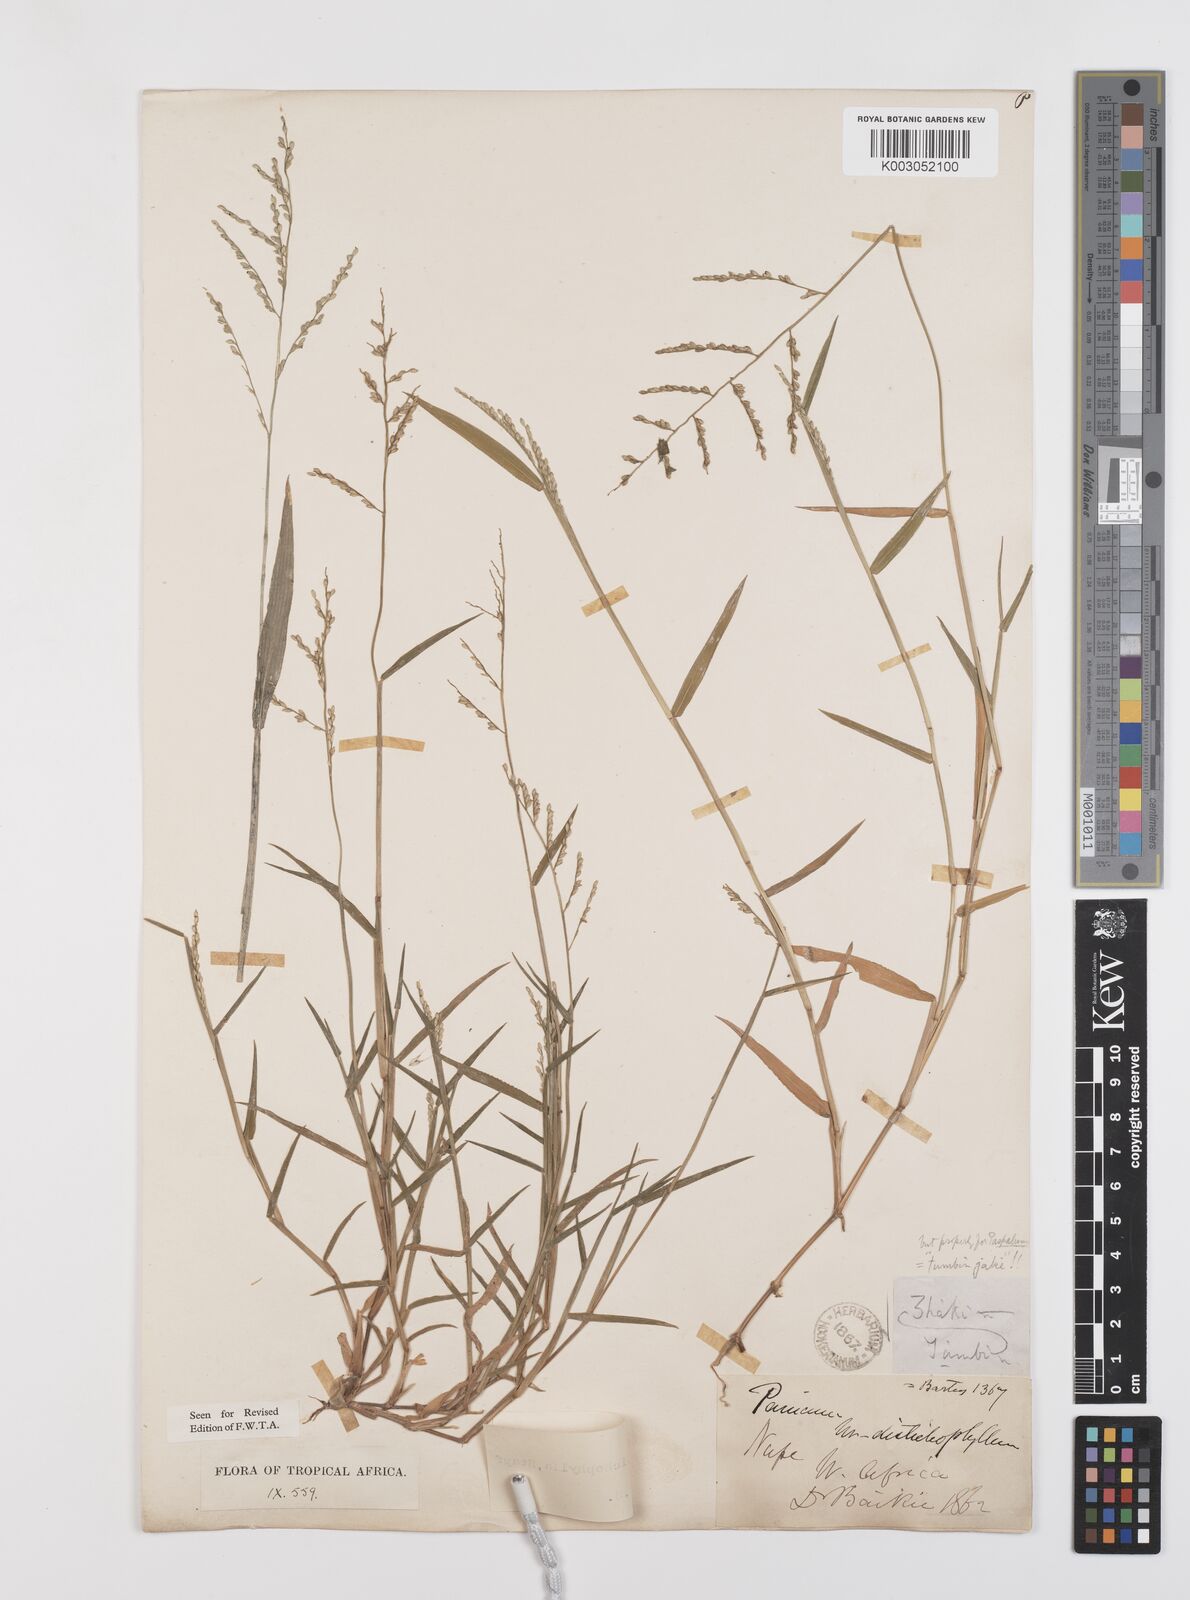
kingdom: Plantae
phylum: Tracheophyta
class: Liliopsida
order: Poales
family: Poaceae
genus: Urochloa
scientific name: Urochloa villosa
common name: Hairy signalgrass
